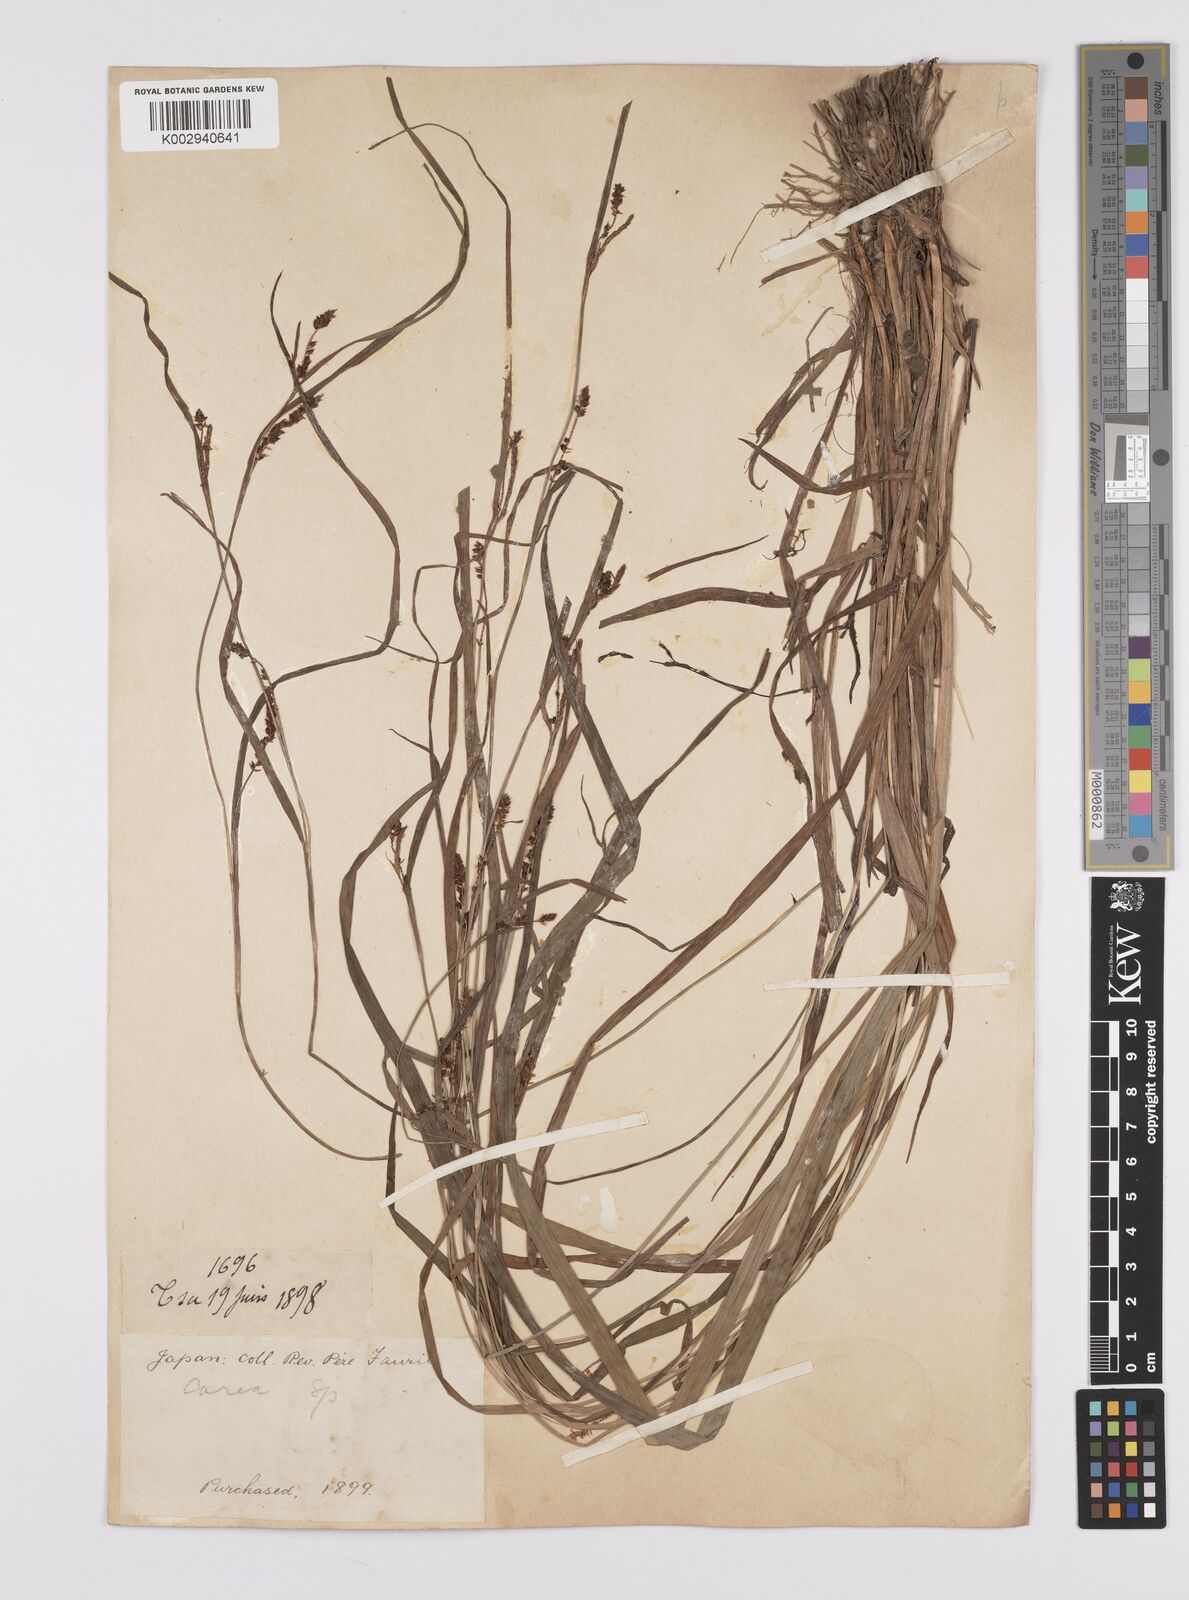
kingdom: Plantae
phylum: Tracheophyta
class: Liliopsida
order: Poales
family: Cyperaceae
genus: Carex
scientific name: Carex maculata
